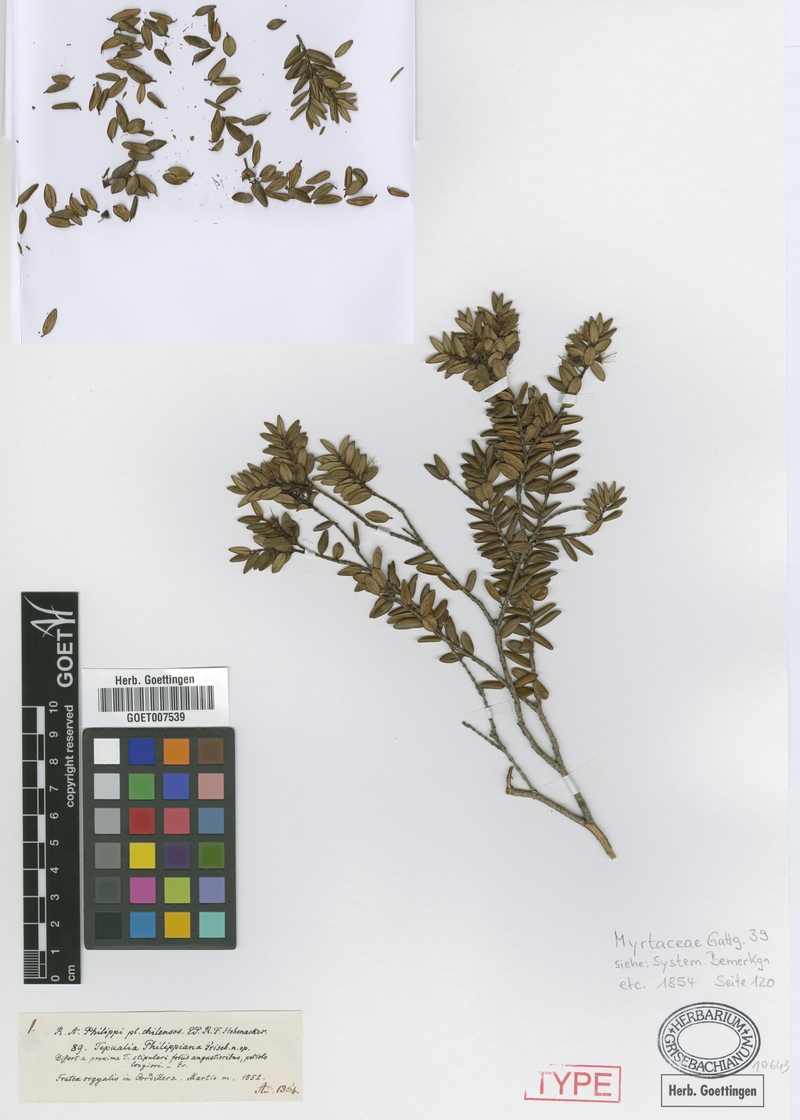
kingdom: Plantae
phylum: Tracheophyta
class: Magnoliopsida
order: Myrtales
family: Myrtaceae
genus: Tepualia
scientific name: Tepualia stipularis
